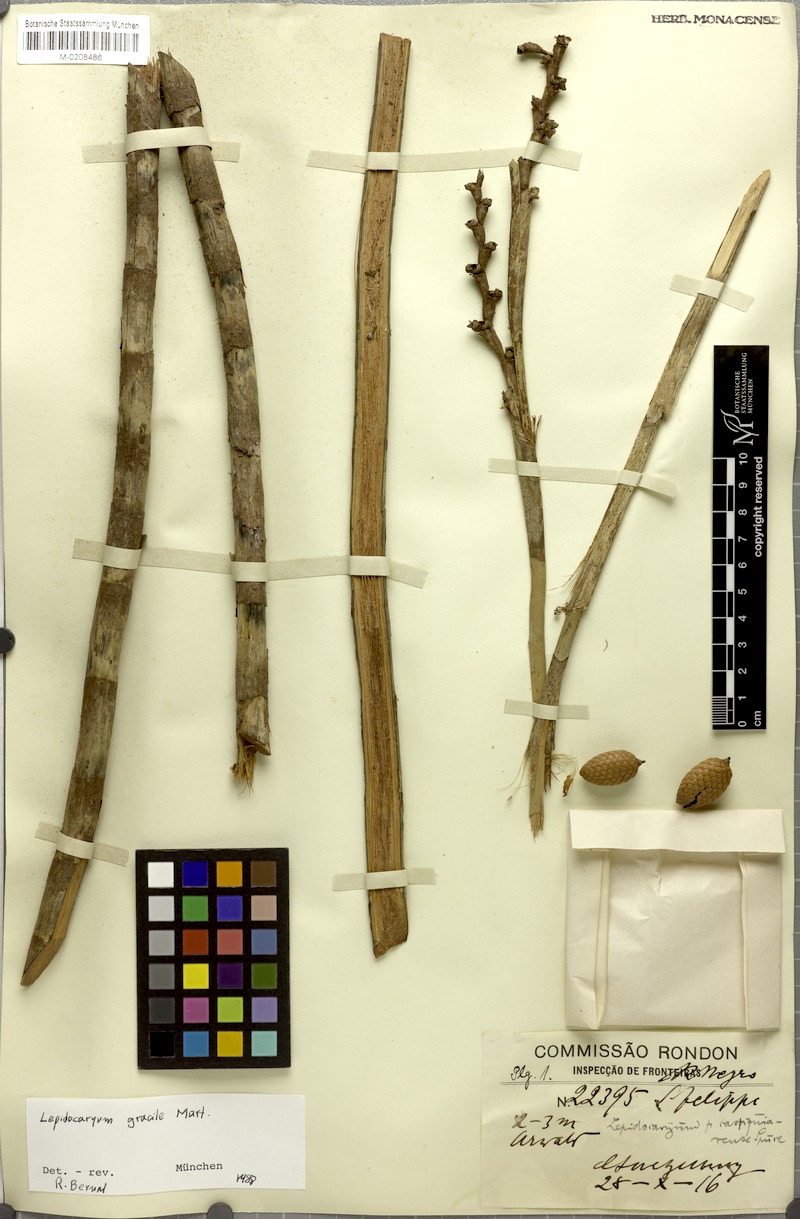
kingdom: Plantae
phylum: Tracheophyta
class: Liliopsida
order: Arecales
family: Arecaceae
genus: Lepidocaryum
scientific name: Lepidocaryum tenue
